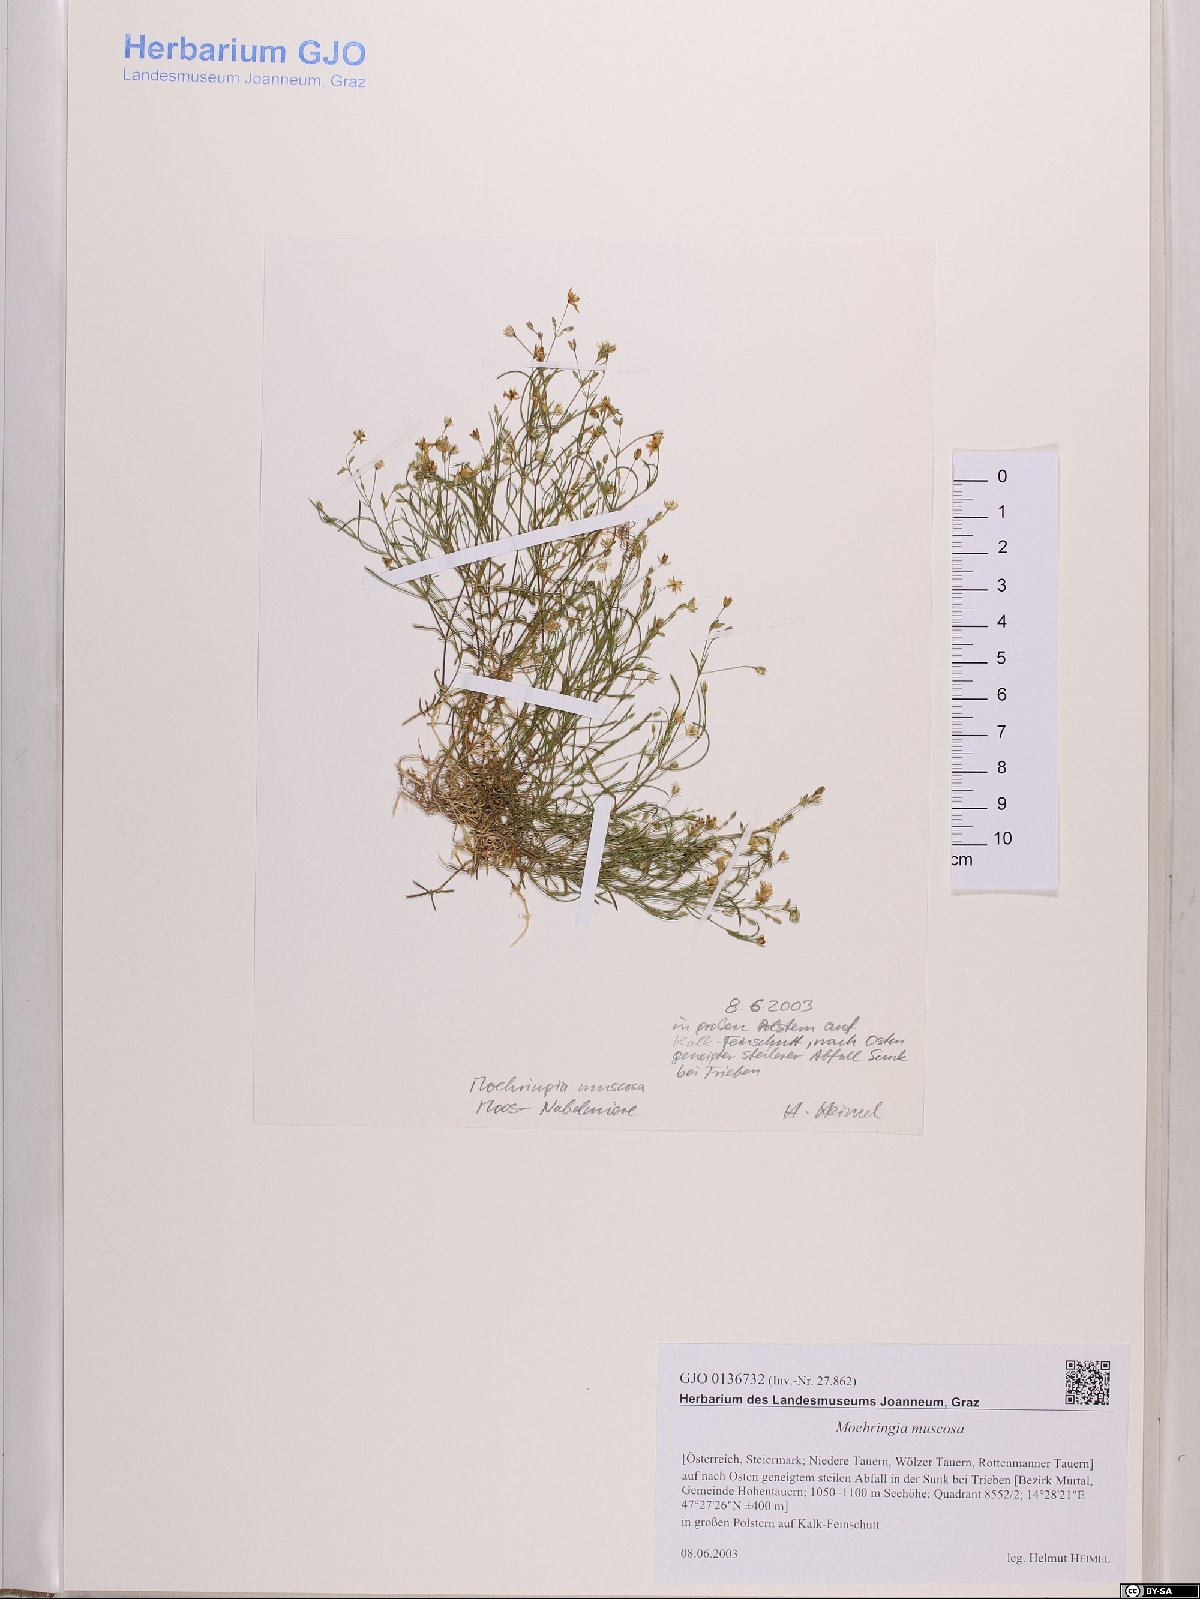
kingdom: Plantae
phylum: Tracheophyta
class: Magnoliopsida
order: Caryophyllales
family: Caryophyllaceae
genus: Moehringia
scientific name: Moehringia muscosa
